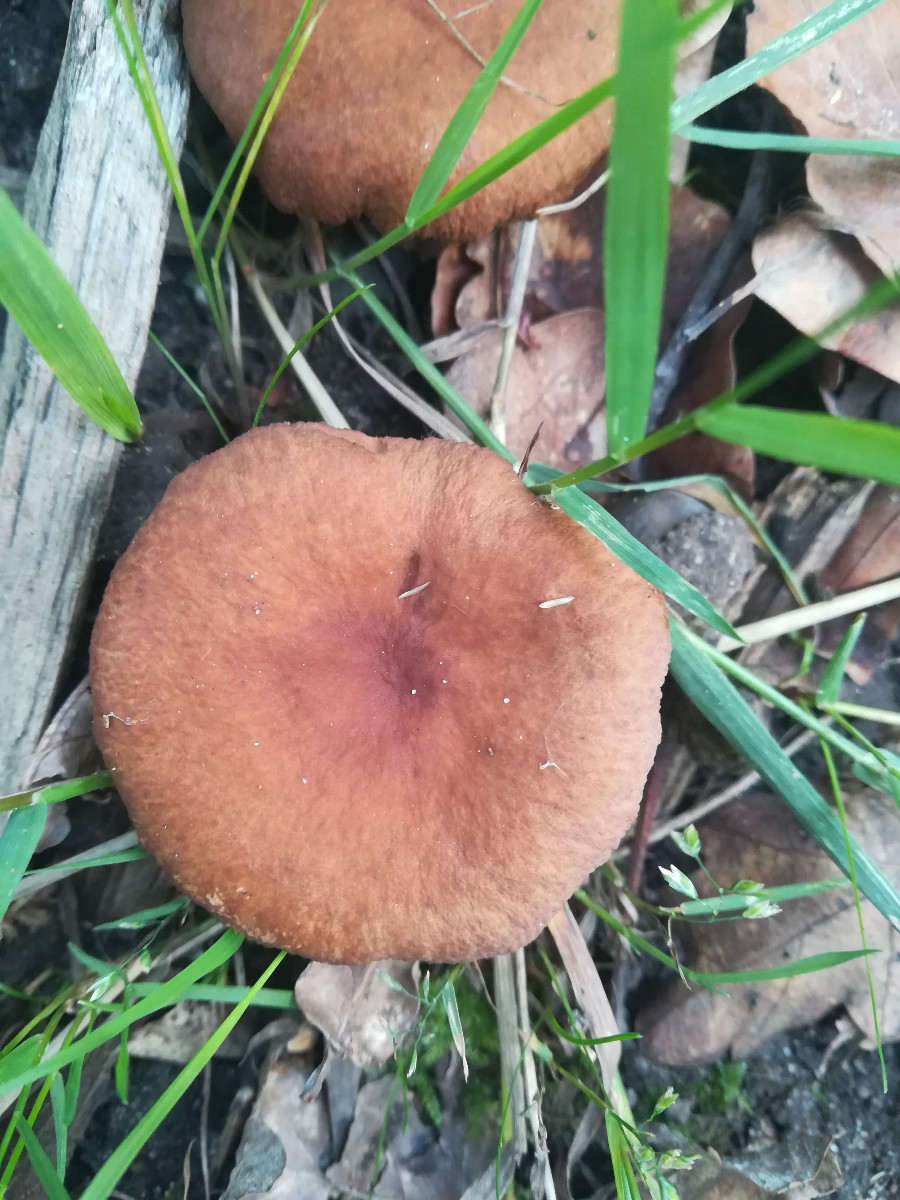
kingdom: Fungi
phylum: Basidiomycota
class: Agaricomycetes
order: Russulales
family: Russulaceae
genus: Lactarius
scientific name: Lactarius camphoratus
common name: kamfer-mælkehat
